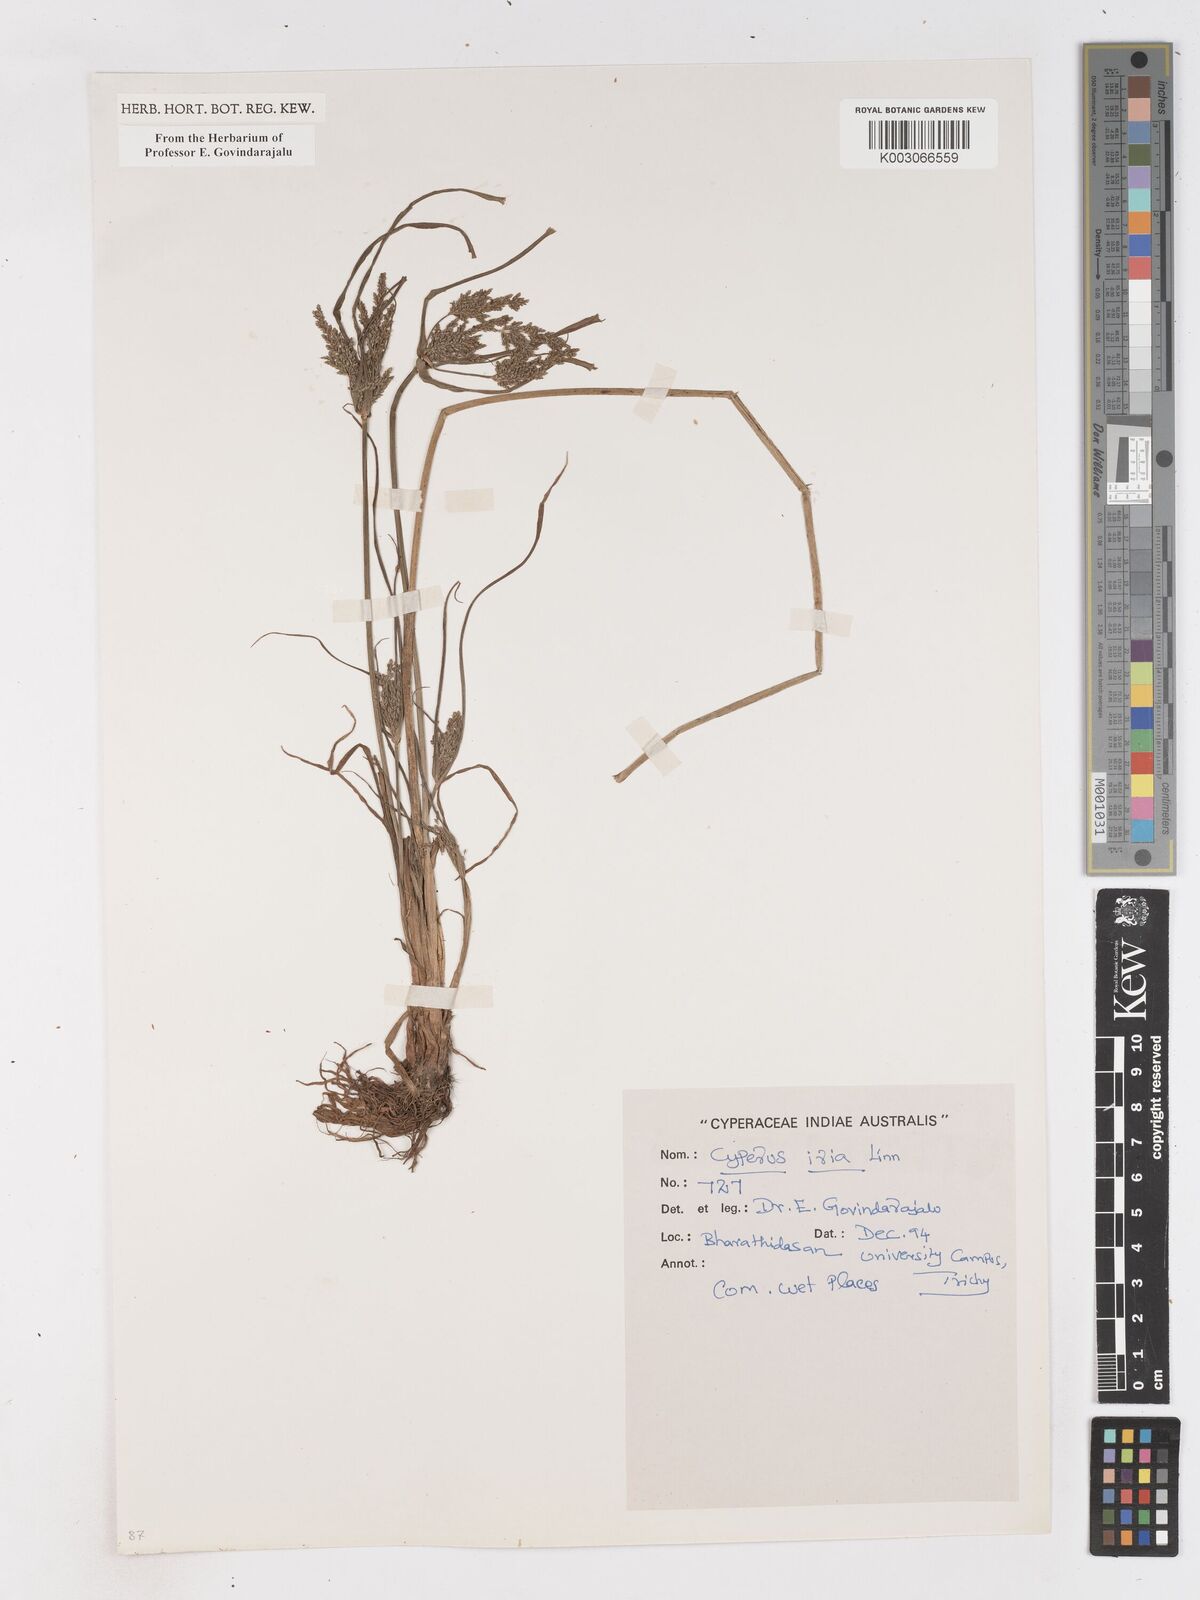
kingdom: Plantae
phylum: Tracheophyta
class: Liliopsida
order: Poales
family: Cyperaceae
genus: Cyperus
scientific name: Cyperus iria
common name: Ricefield flatsedge
